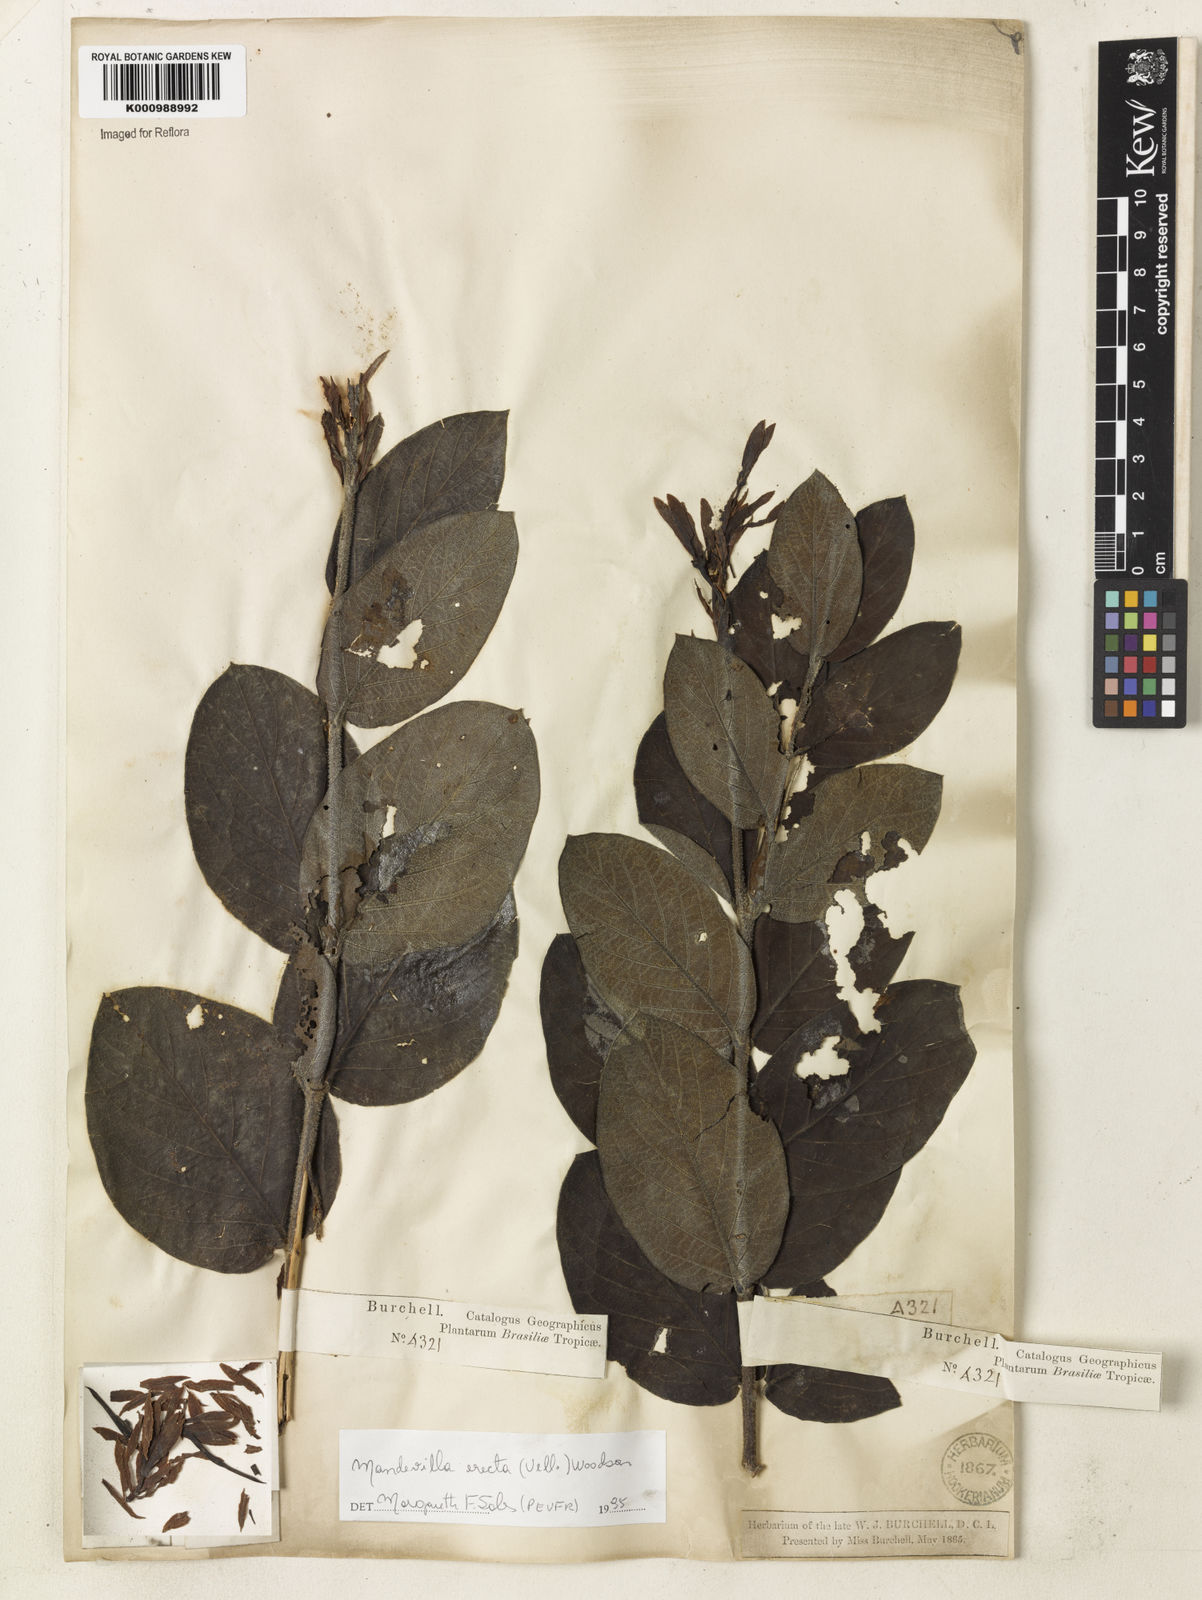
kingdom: Plantae
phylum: Tracheophyta
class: Magnoliopsida
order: Gentianales
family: Apocynaceae
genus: Mandevilla
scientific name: Mandevilla emarginata
